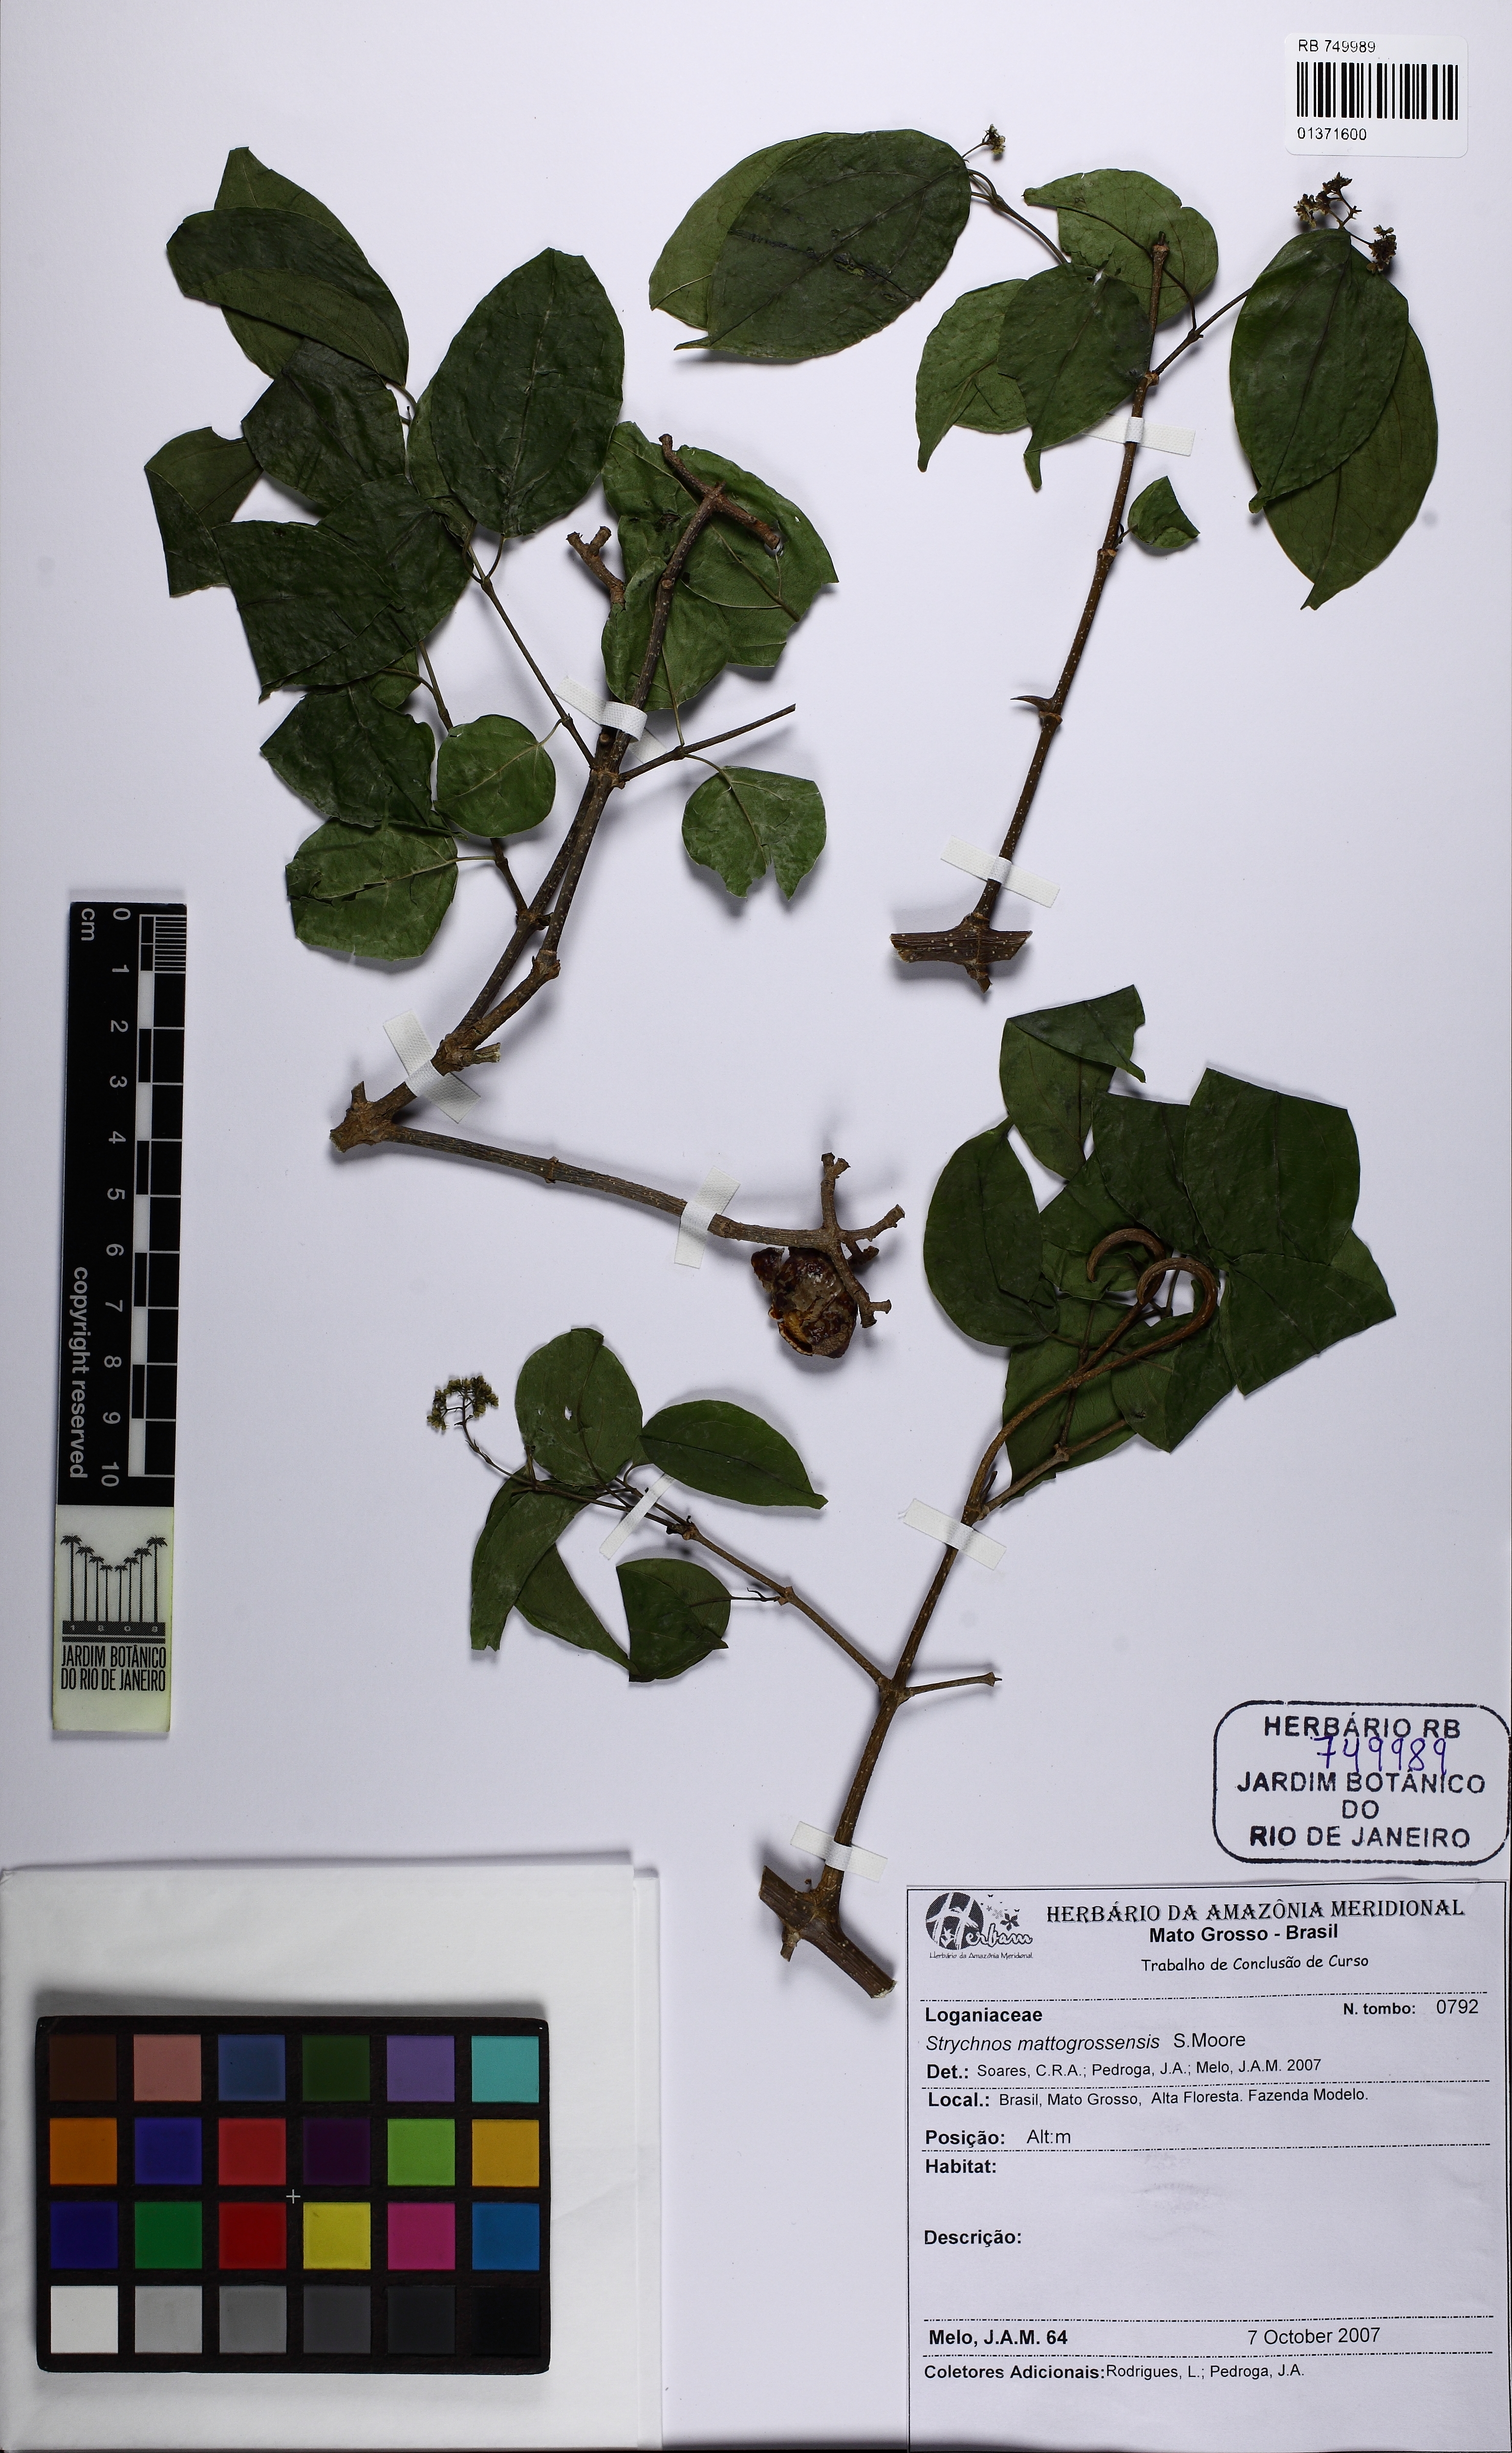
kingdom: Plantae
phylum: Tracheophyta
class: Magnoliopsida
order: Gentianales
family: Loganiaceae
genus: Strychnos
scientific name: Strychnos mattogrossensis
